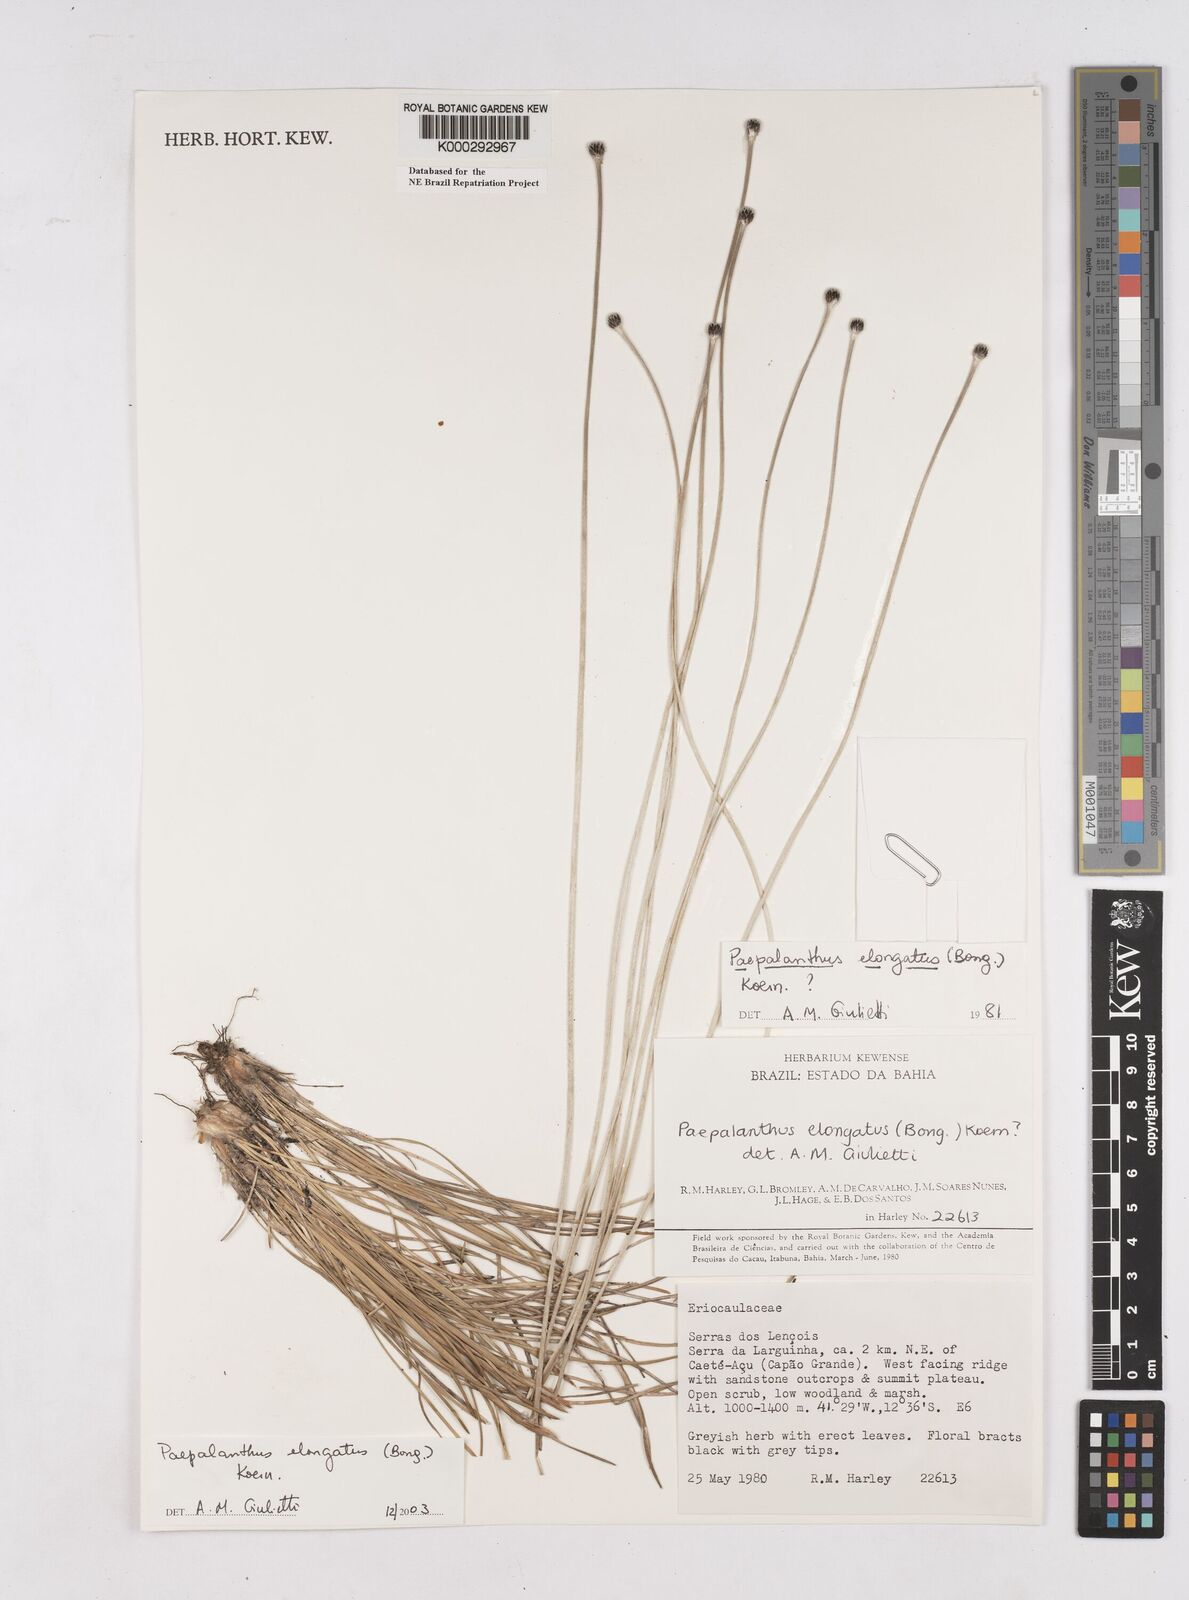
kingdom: Plantae
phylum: Tracheophyta
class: Liliopsida
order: Poales
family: Eriocaulaceae
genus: Paepalanthus
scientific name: Paepalanthus
